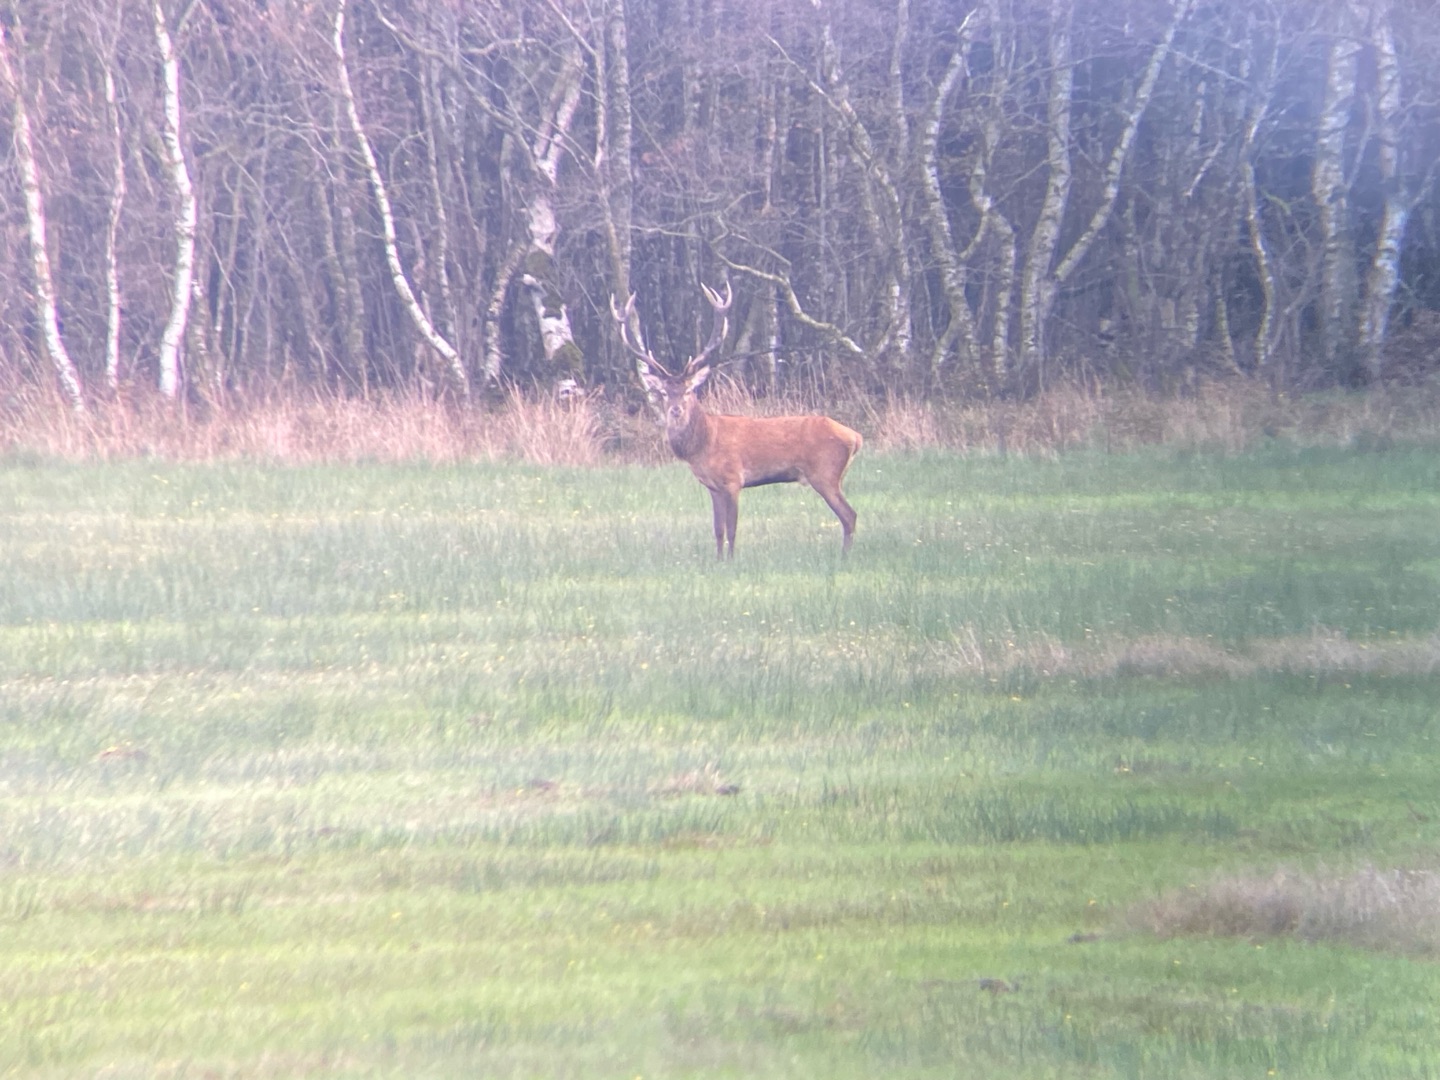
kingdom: Animalia
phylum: Chordata
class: Mammalia
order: Artiodactyla
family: Cervidae
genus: Cervus
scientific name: Cervus elaphus
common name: Krondyr
